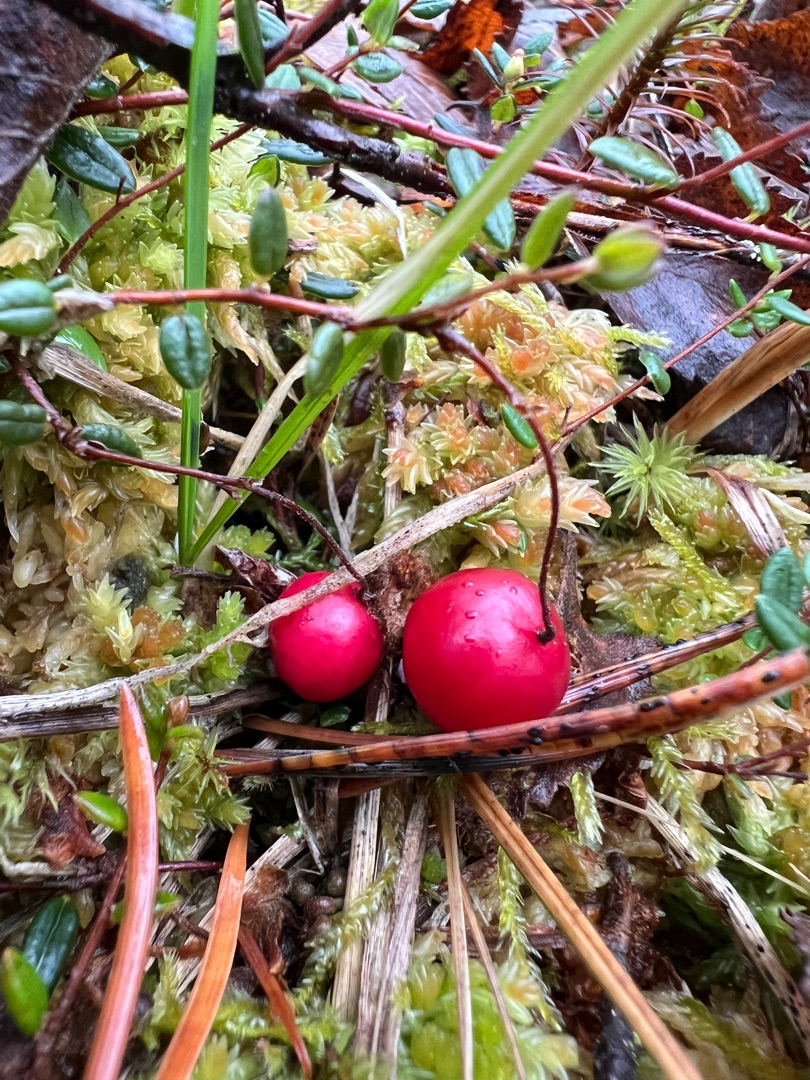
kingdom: Plantae
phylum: Tracheophyta
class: Magnoliopsida
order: Ericales
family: Ericaceae
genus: Vaccinium
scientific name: Vaccinium oxycoccos
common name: Tranebær
